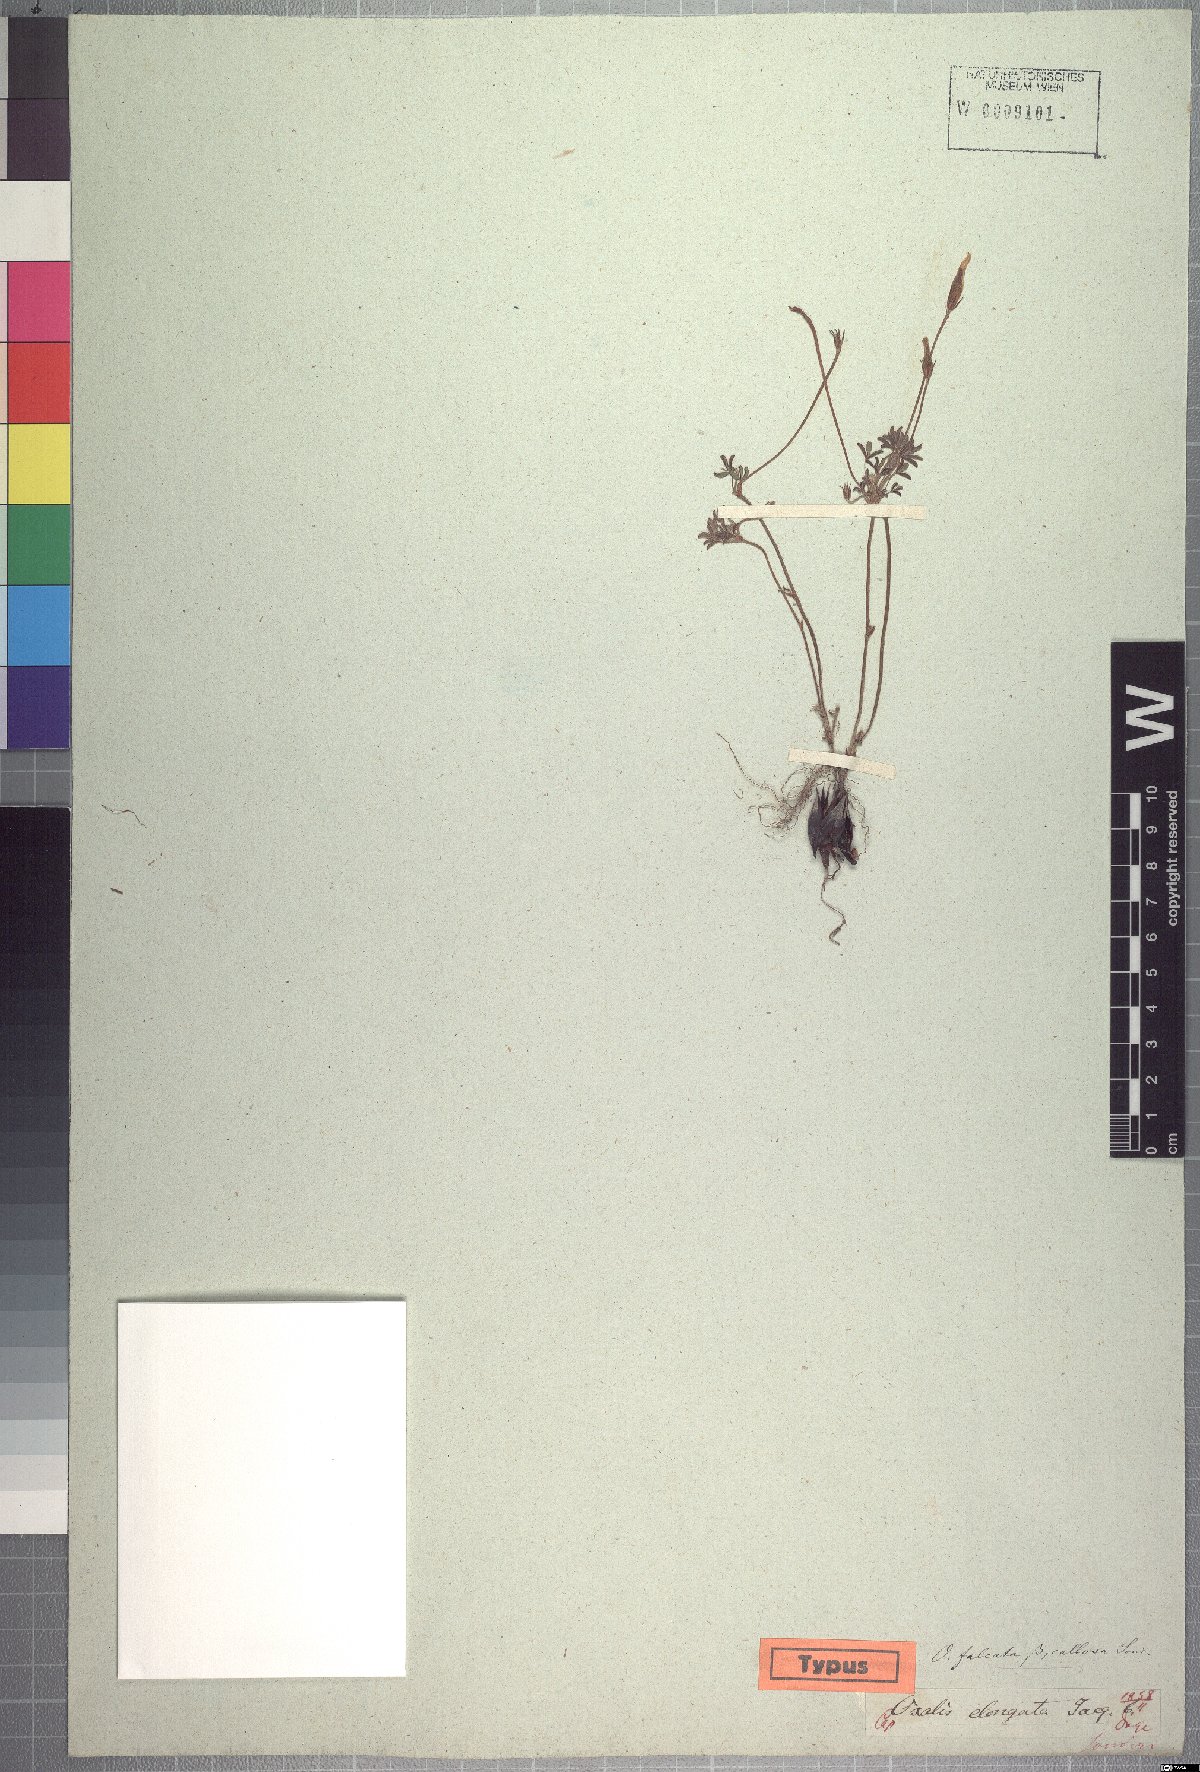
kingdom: Plantae
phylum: Tracheophyta
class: Magnoliopsida
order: Oxalidales
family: Oxalidaceae
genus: Oxalis
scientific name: Oxalis argyrophylla
